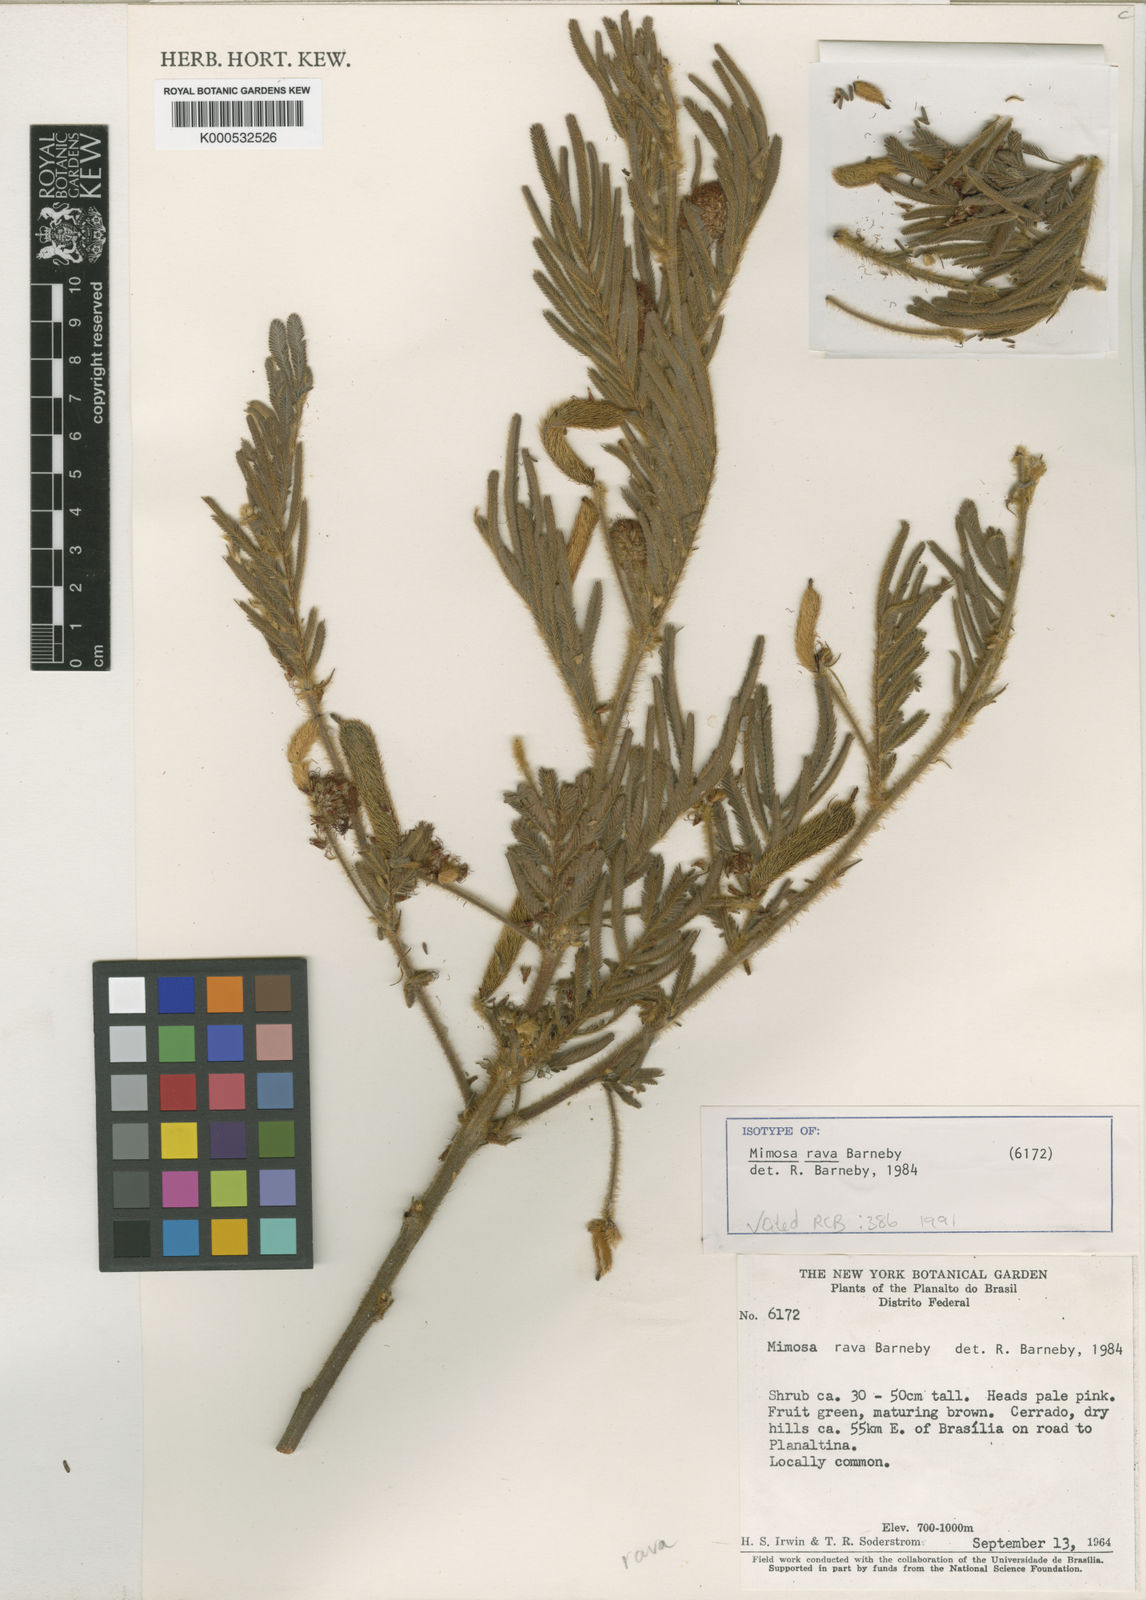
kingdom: Plantae
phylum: Tracheophyta
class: Magnoliopsida
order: Fabales
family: Fabaceae
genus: Mimosa
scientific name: Mimosa rava
